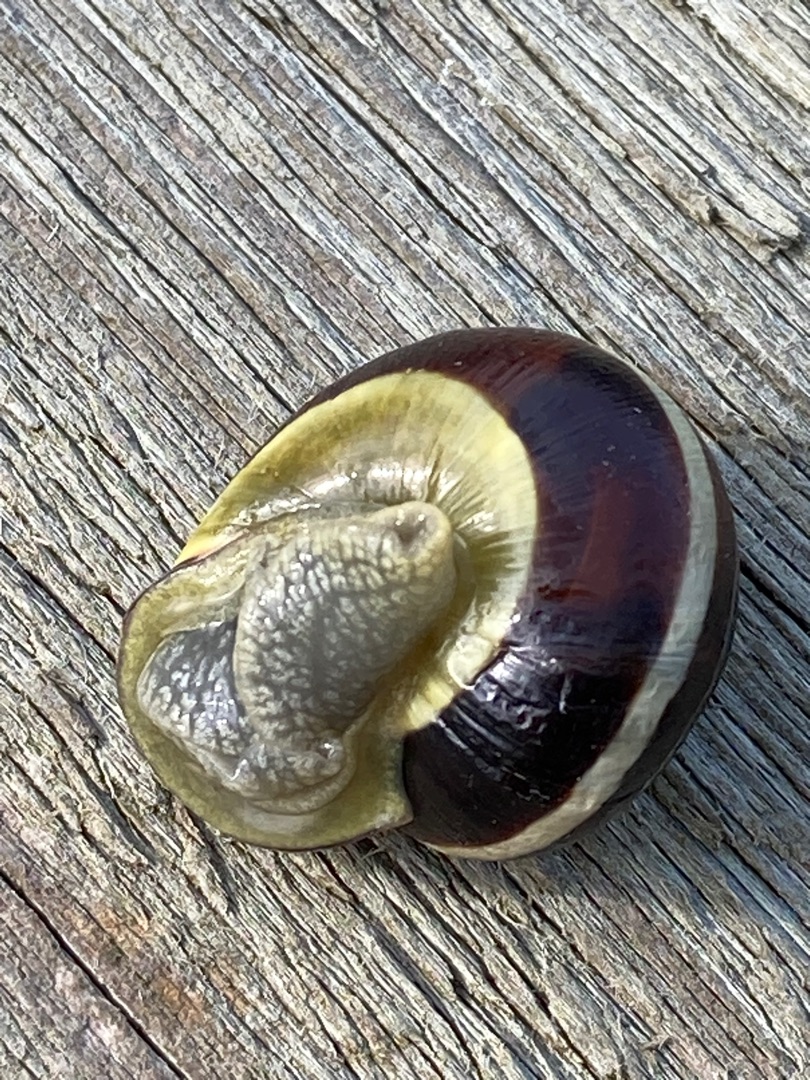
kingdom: Animalia
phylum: Mollusca
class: Gastropoda
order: Stylommatophora
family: Helicidae
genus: Cepaea
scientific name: Cepaea nemoralis
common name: Lundsnegl
